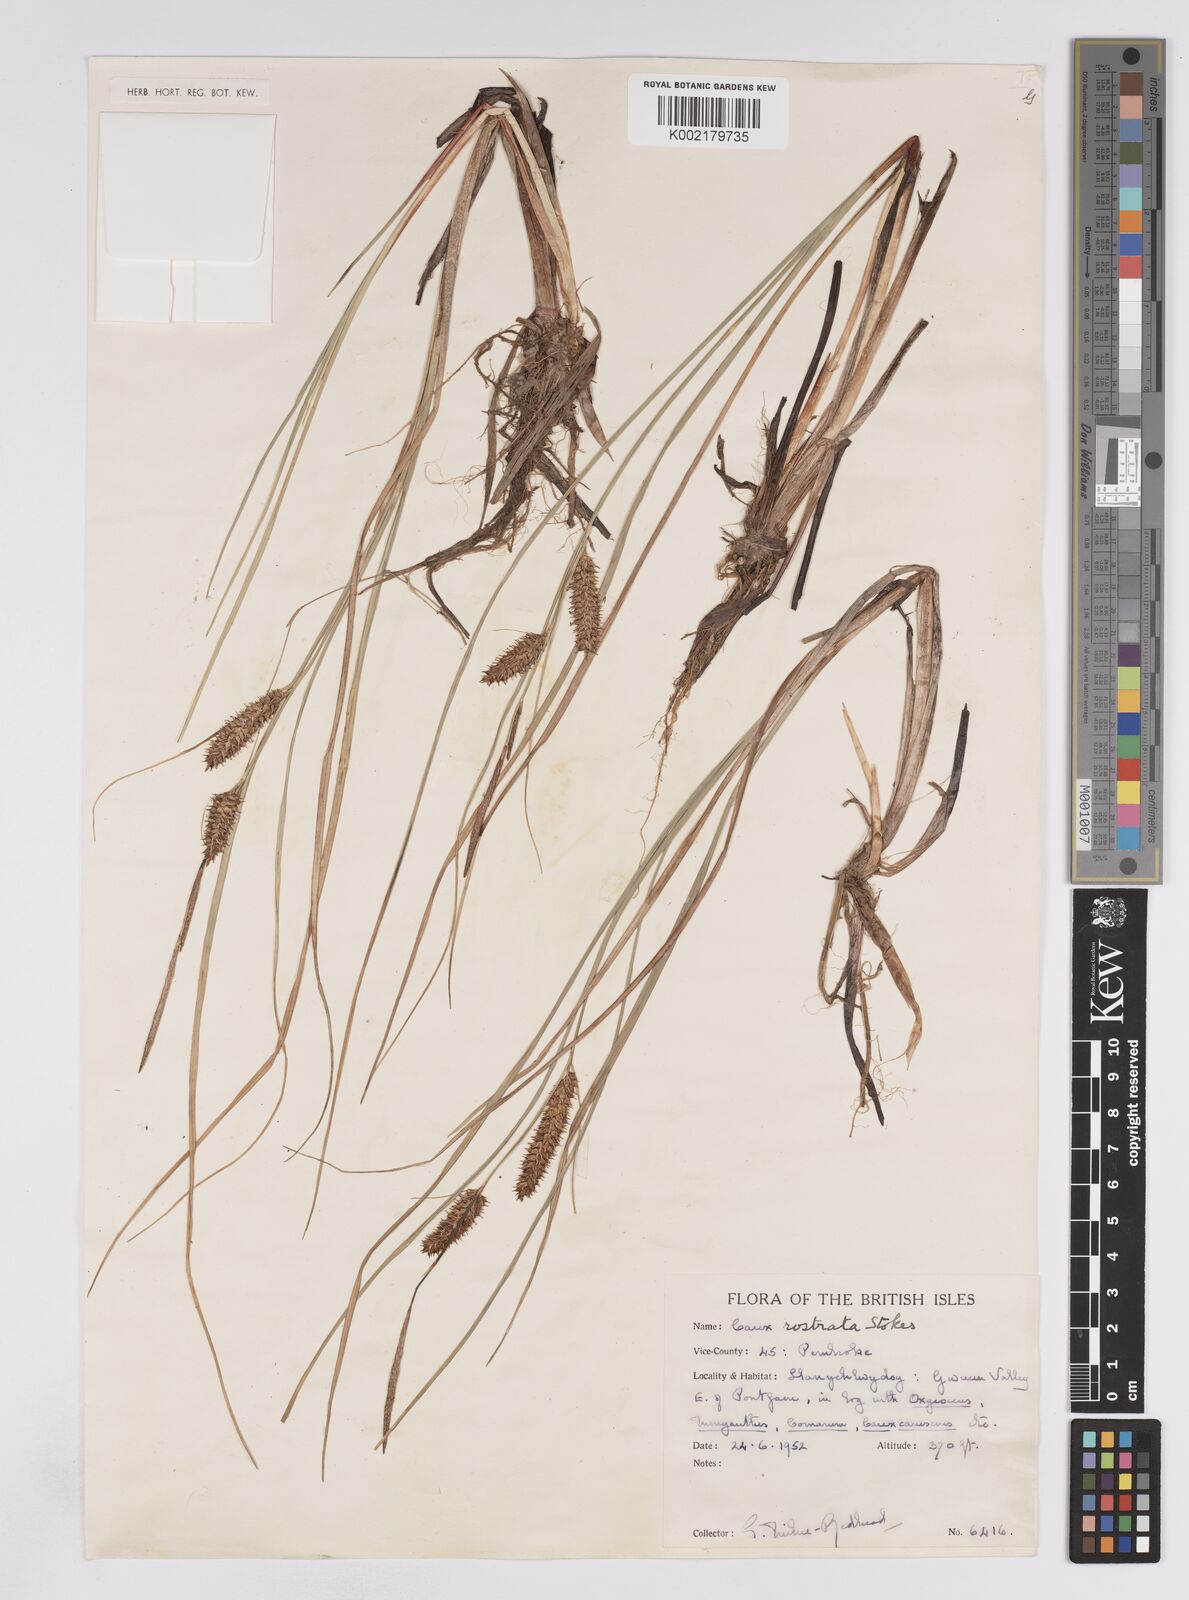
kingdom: Plantae
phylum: Tracheophyta
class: Liliopsida
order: Poales
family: Cyperaceae
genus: Carex
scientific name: Carex rostrata
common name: Bottle sedge
